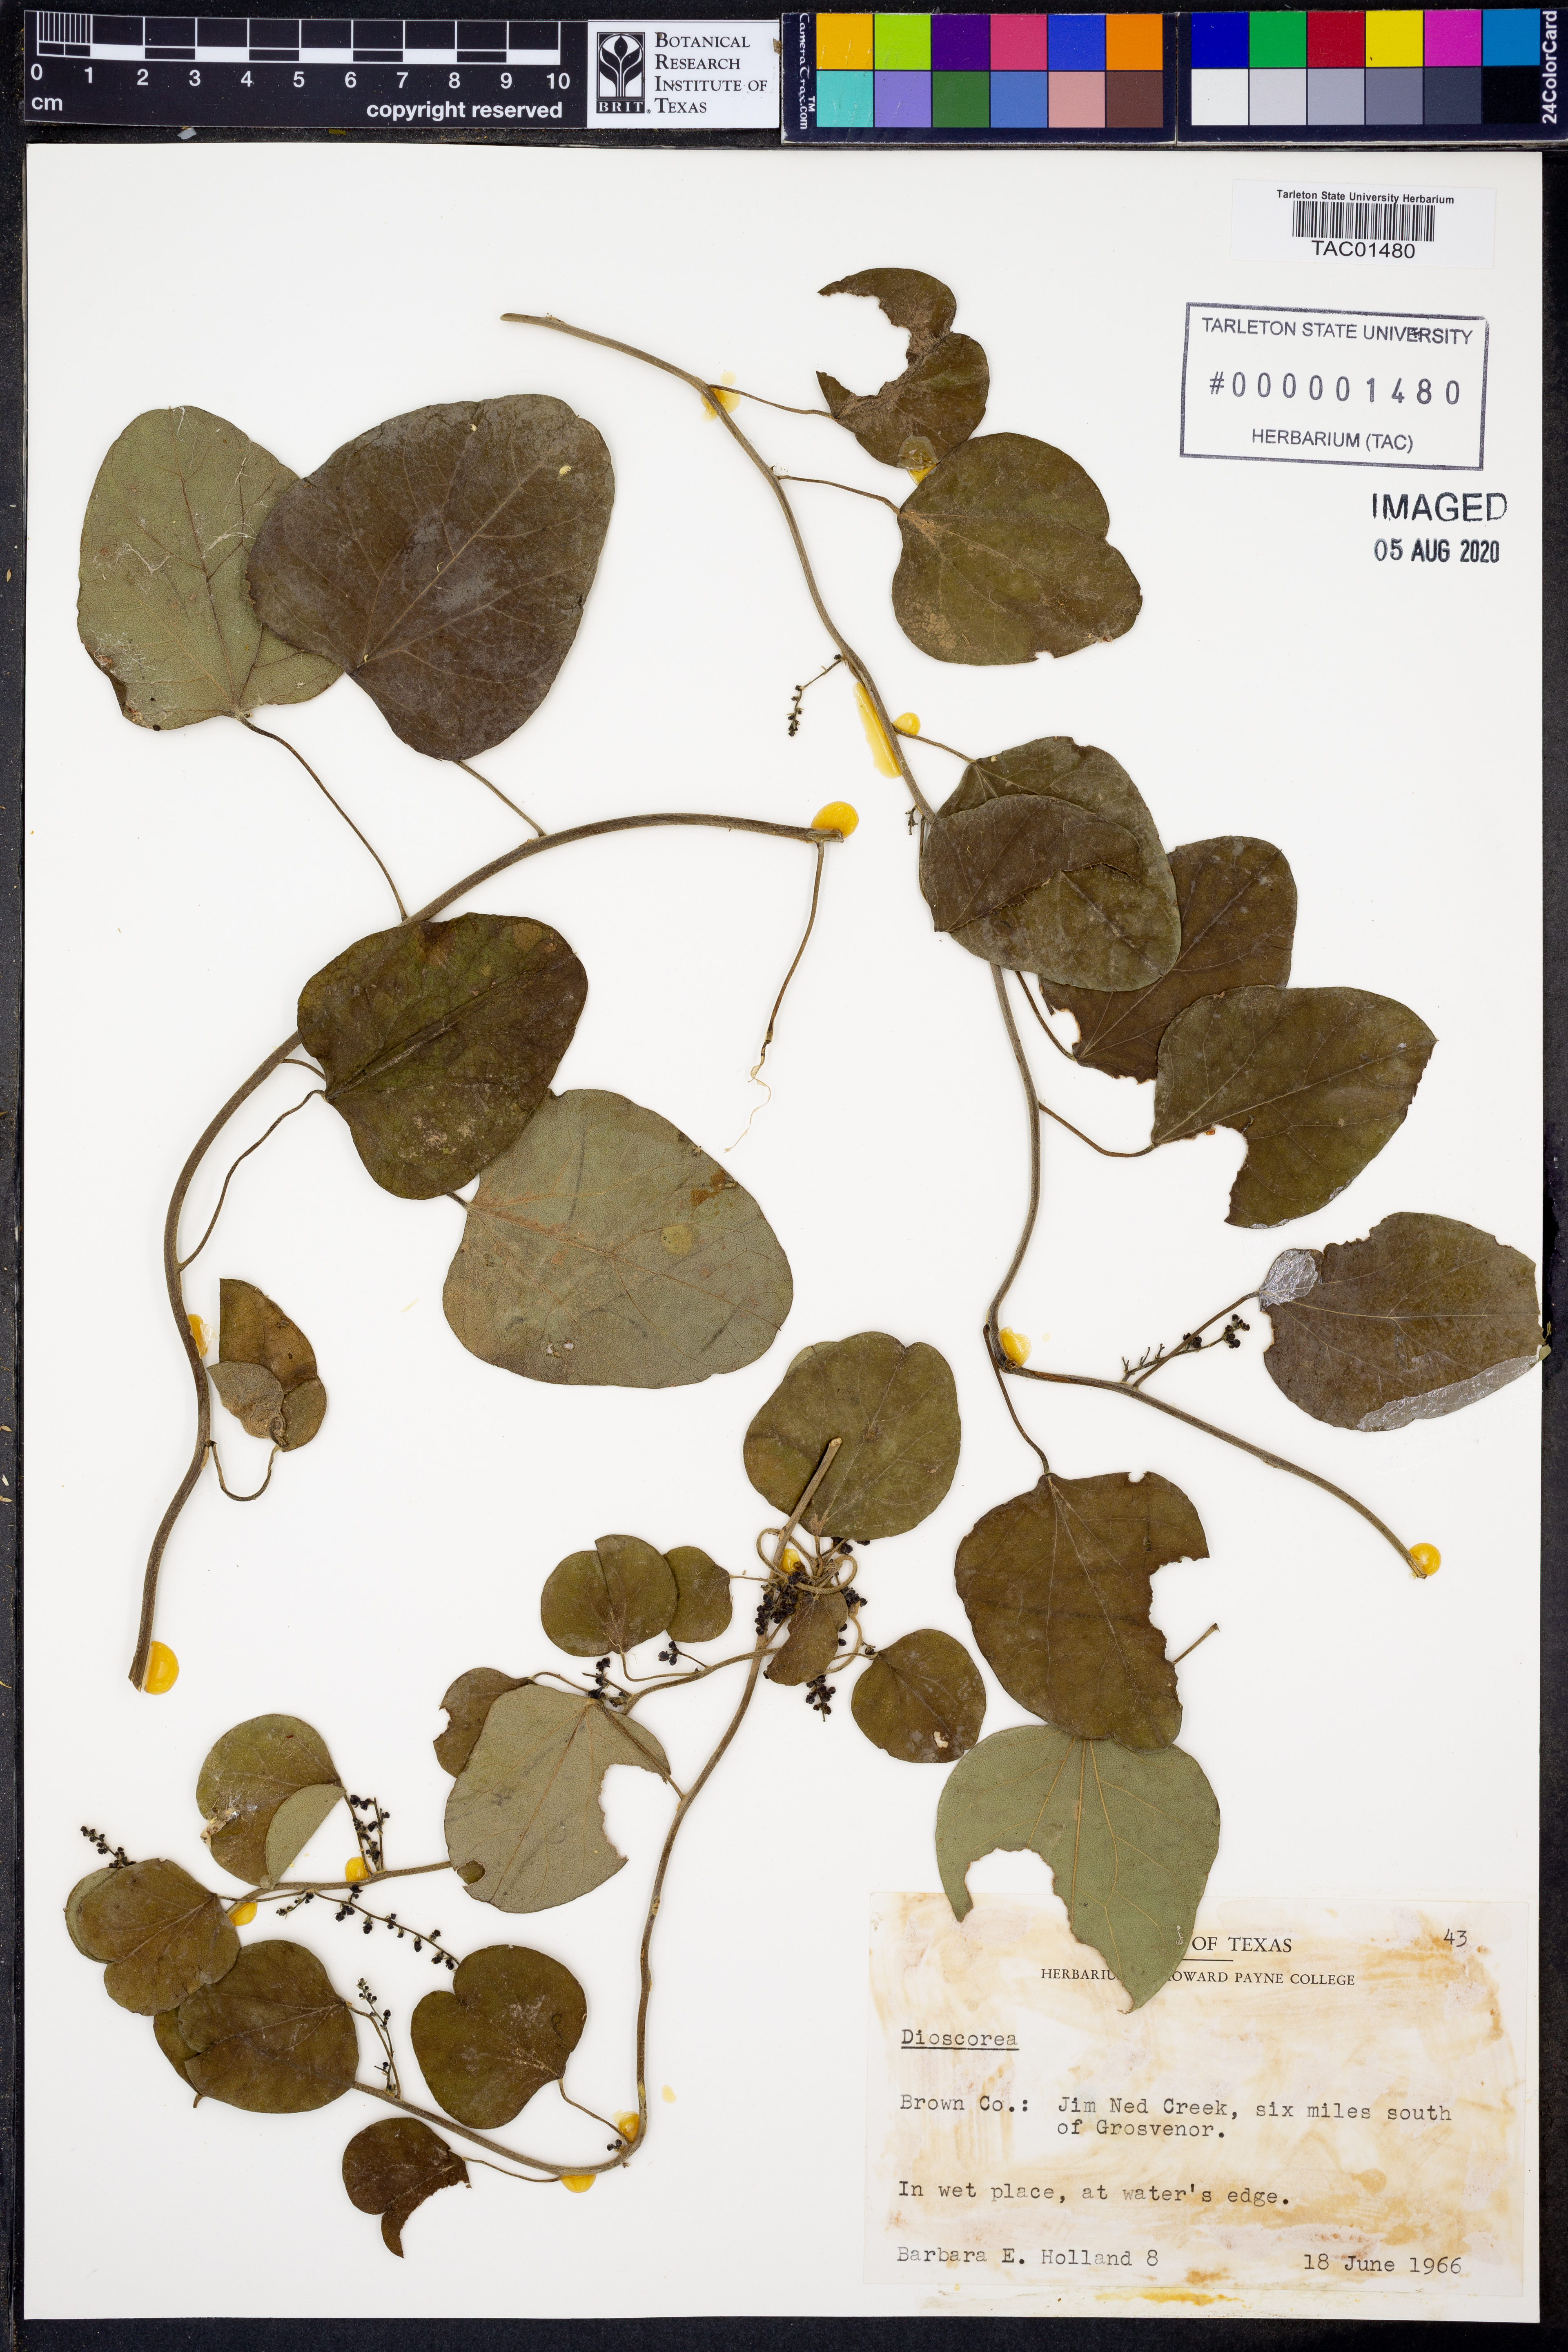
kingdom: Plantae
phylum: Tracheophyta
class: Liliopsida
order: Dioscoreales
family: Dioscoreaceae
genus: Dioscorea
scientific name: Dioscorea
